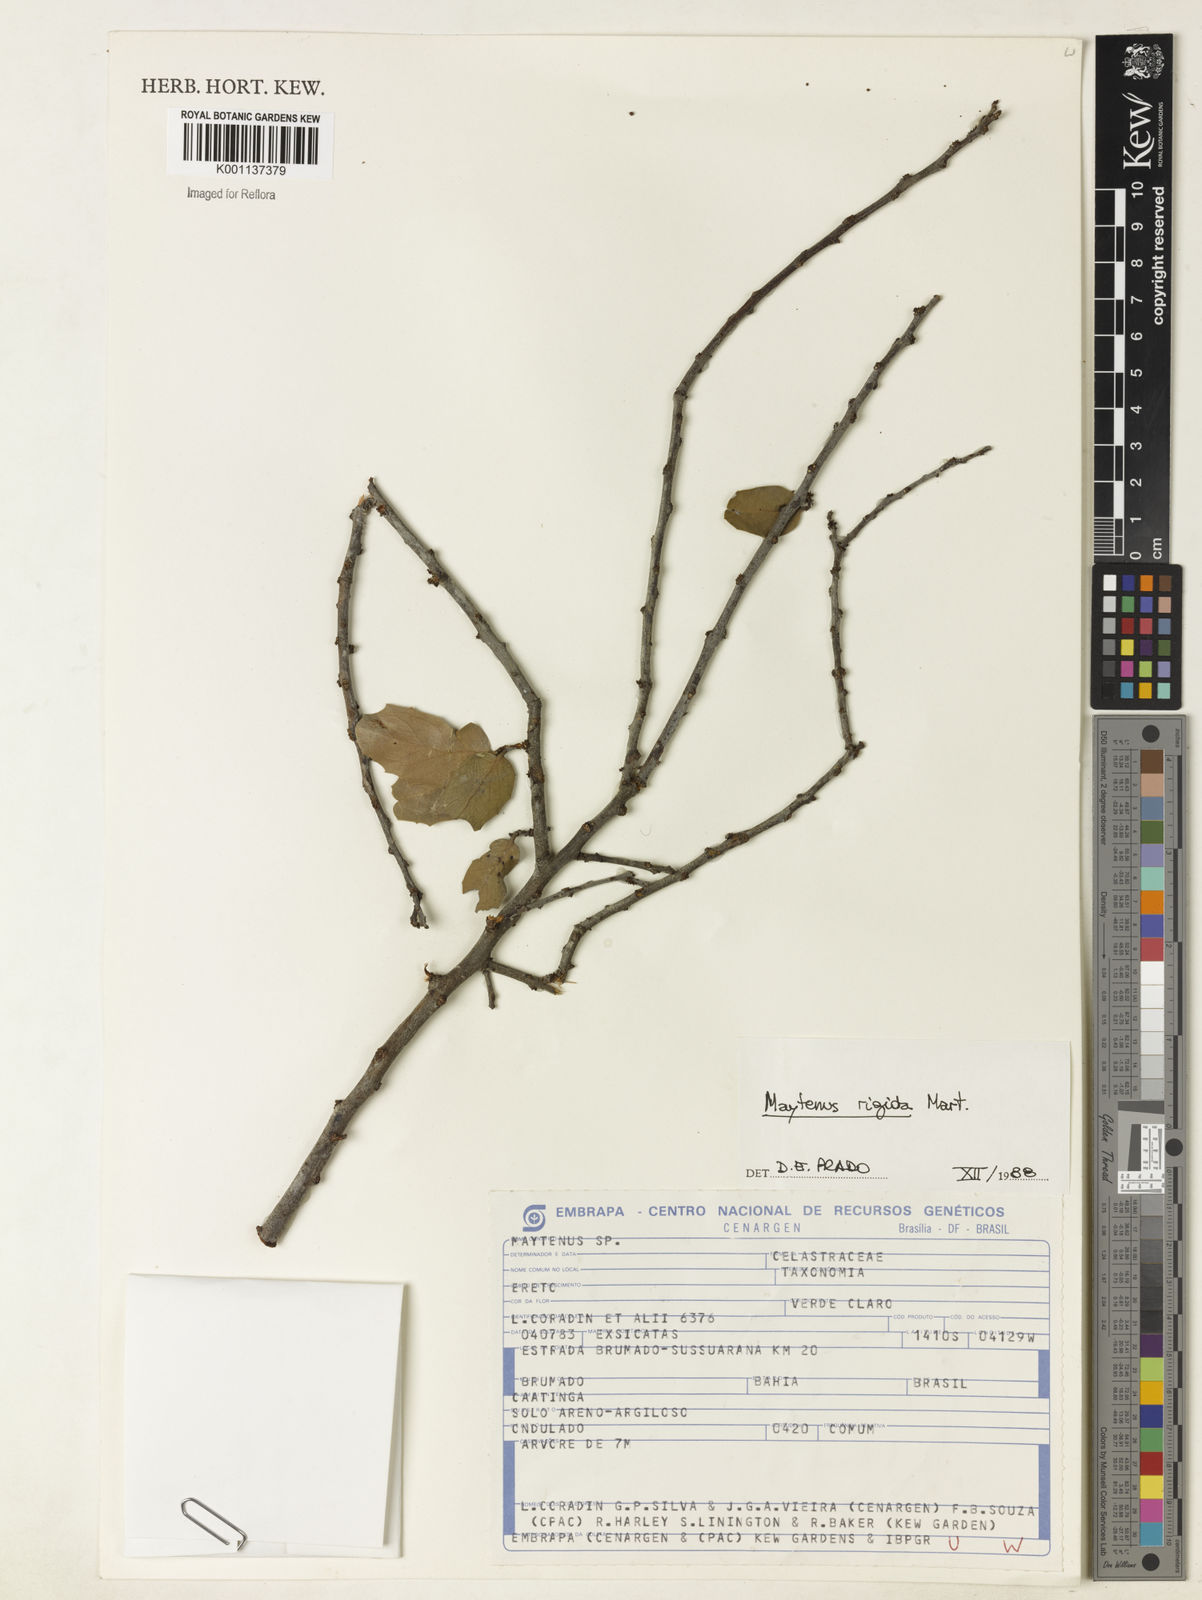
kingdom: Plantae
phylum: Tracheophyta
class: Magnoliopsida
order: Celastrales
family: Celastraceae
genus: Monteverdia
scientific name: Monteverdia rigida
